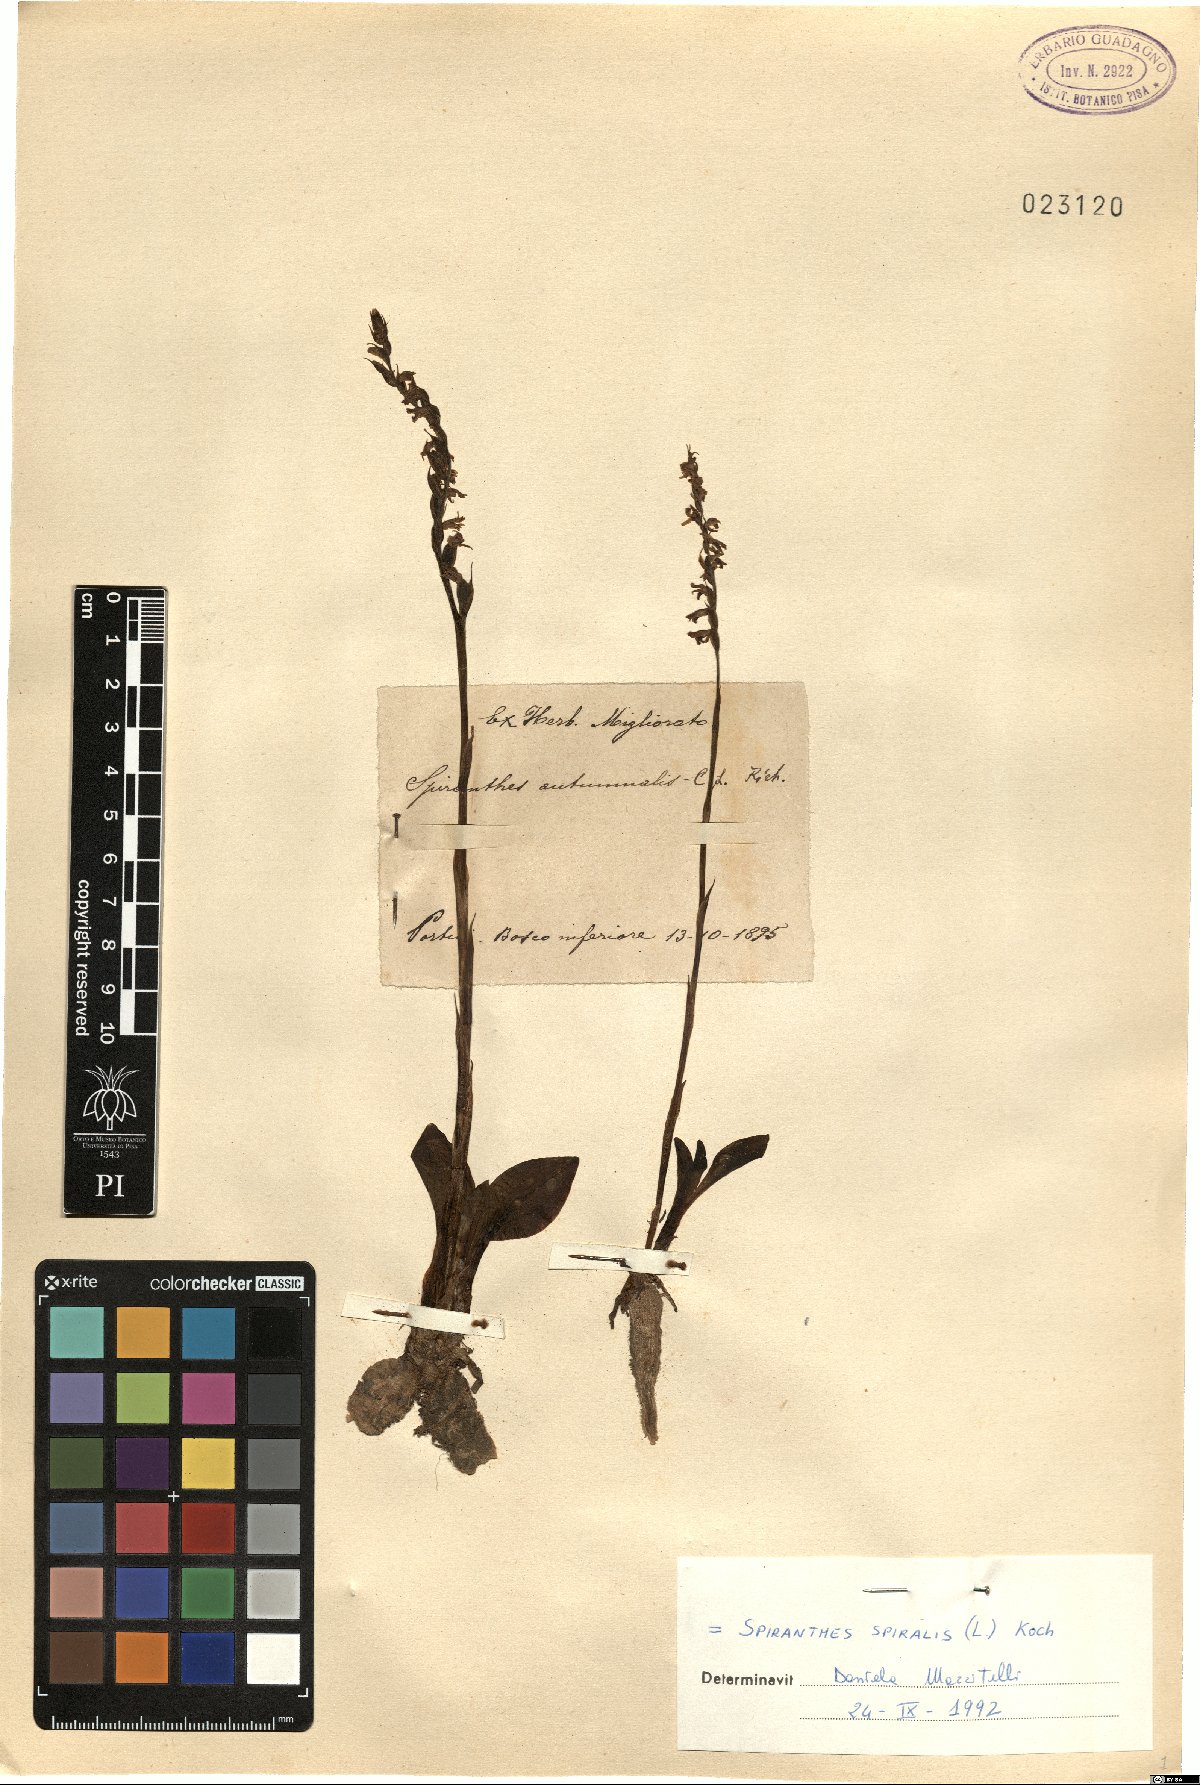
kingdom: Plantae
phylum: Tracheophyta
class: Liliopsida
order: Asparagales
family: Orchidaceae
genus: Spiranthes
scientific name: Spiranthes spiralis
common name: Autumn lady's-tresses
